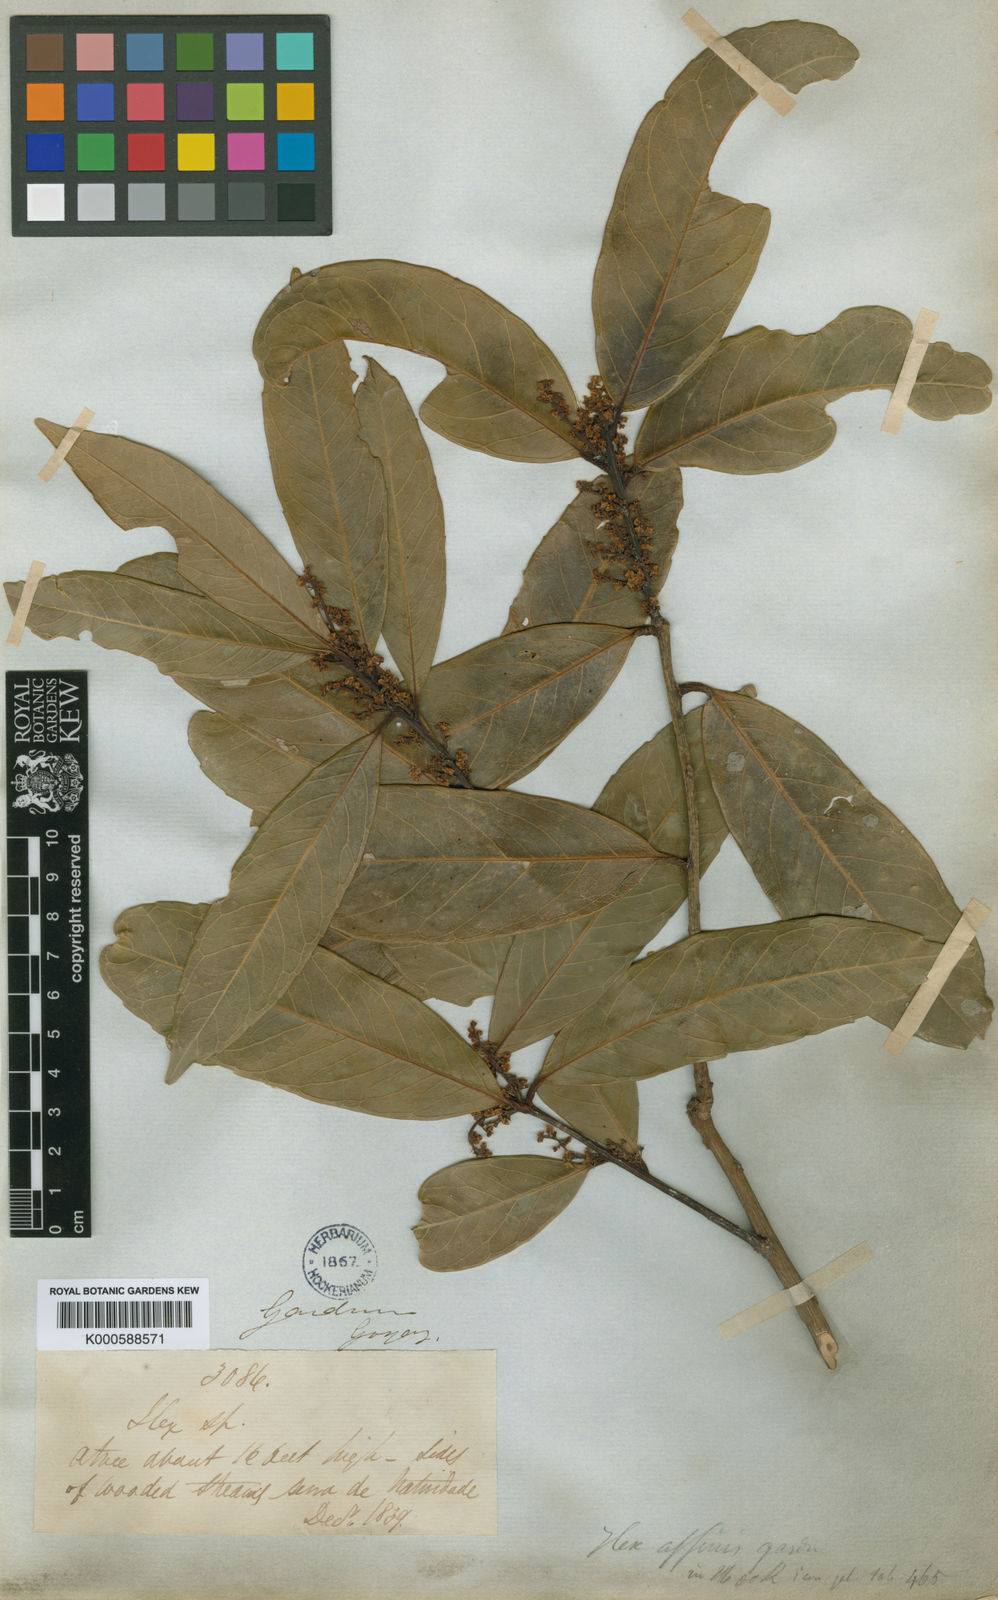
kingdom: Plantae
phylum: Tracheophyta
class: Magnoliopsida
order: Aquifoliales
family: Aquifoliaceae
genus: Ilex
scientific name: Ilex affinis
